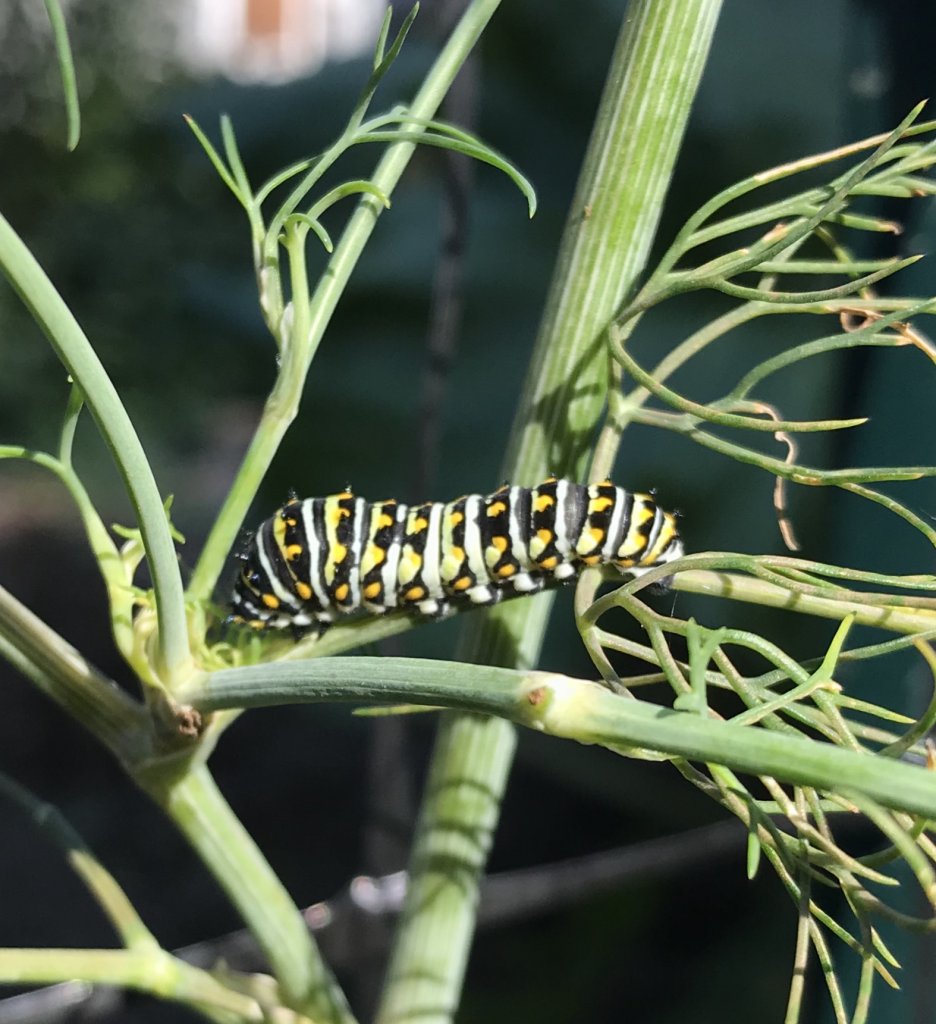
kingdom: Animalia
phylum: Arthropoda
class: Insecta
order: Lepidoptera
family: Papilionidae
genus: Papilio
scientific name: Papilio polyxenes
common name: Black Swallowtail
